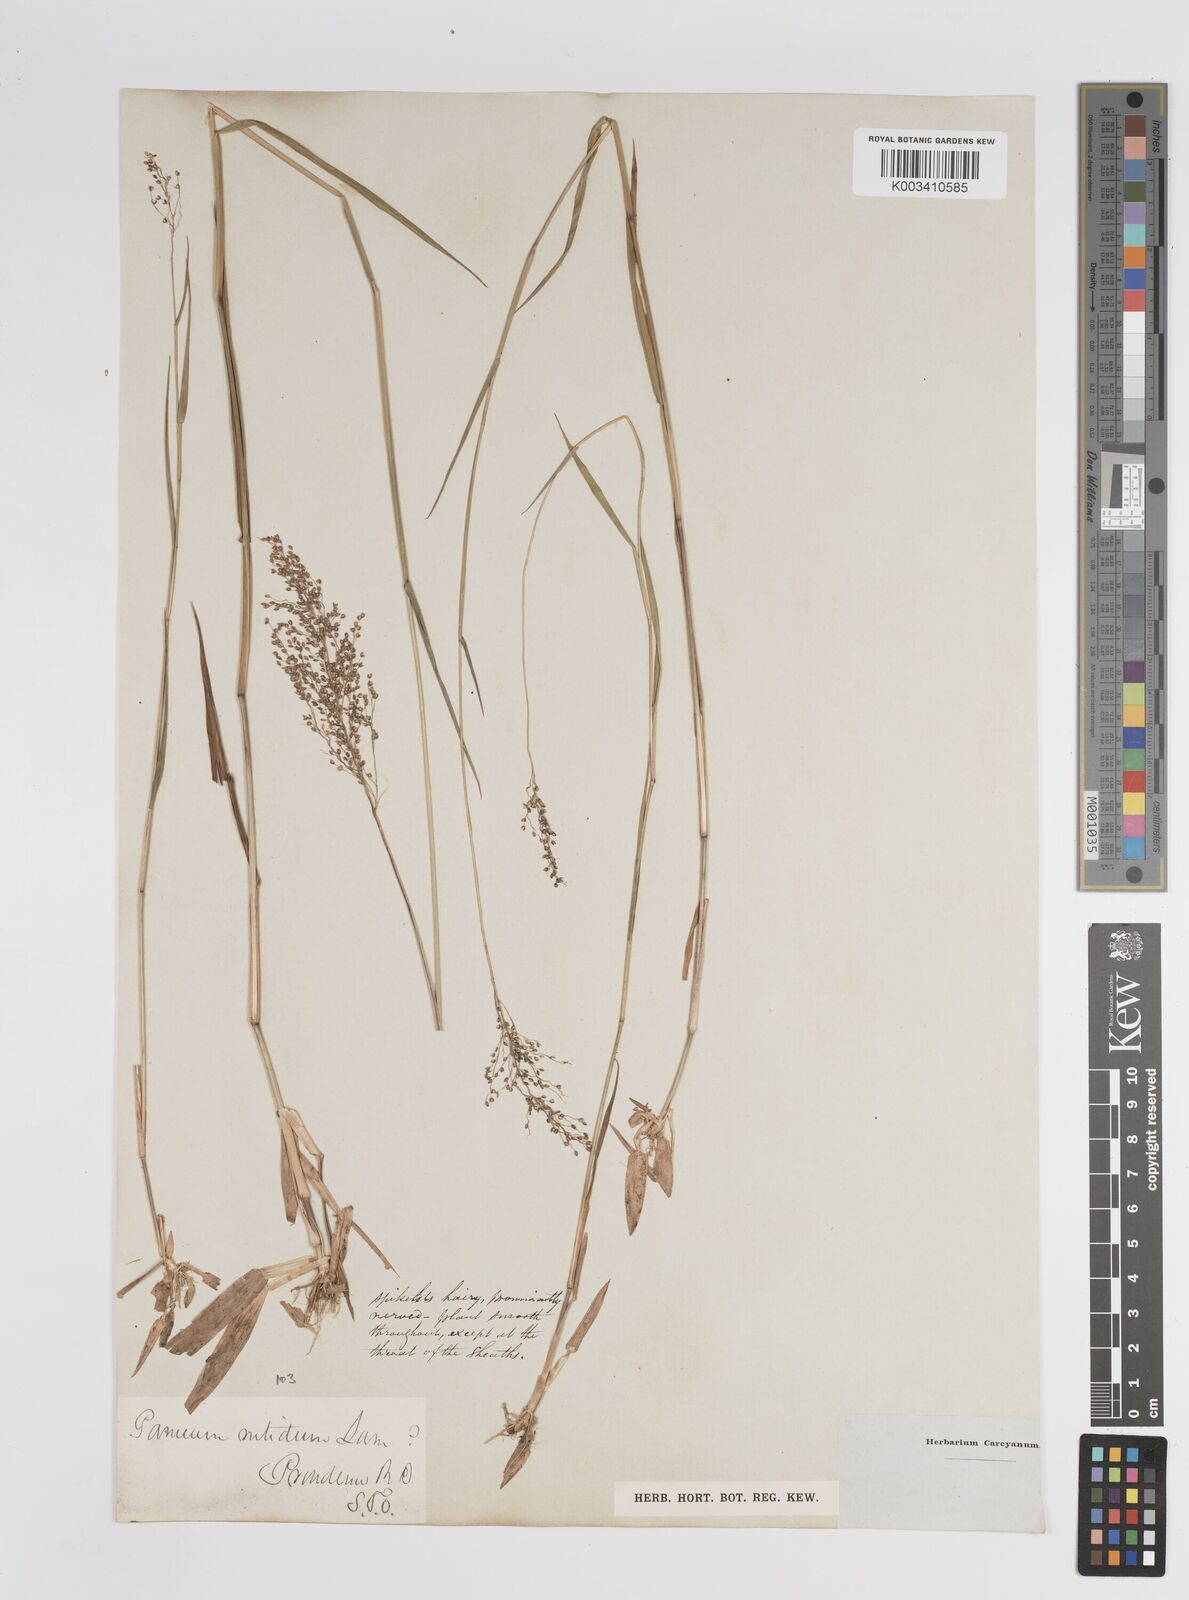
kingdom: Plantae
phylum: Tracheophyta
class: Liliopsida
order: Poales
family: Poaceae
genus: Dichanthelium
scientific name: Dichanthelium mattamuskeetense
